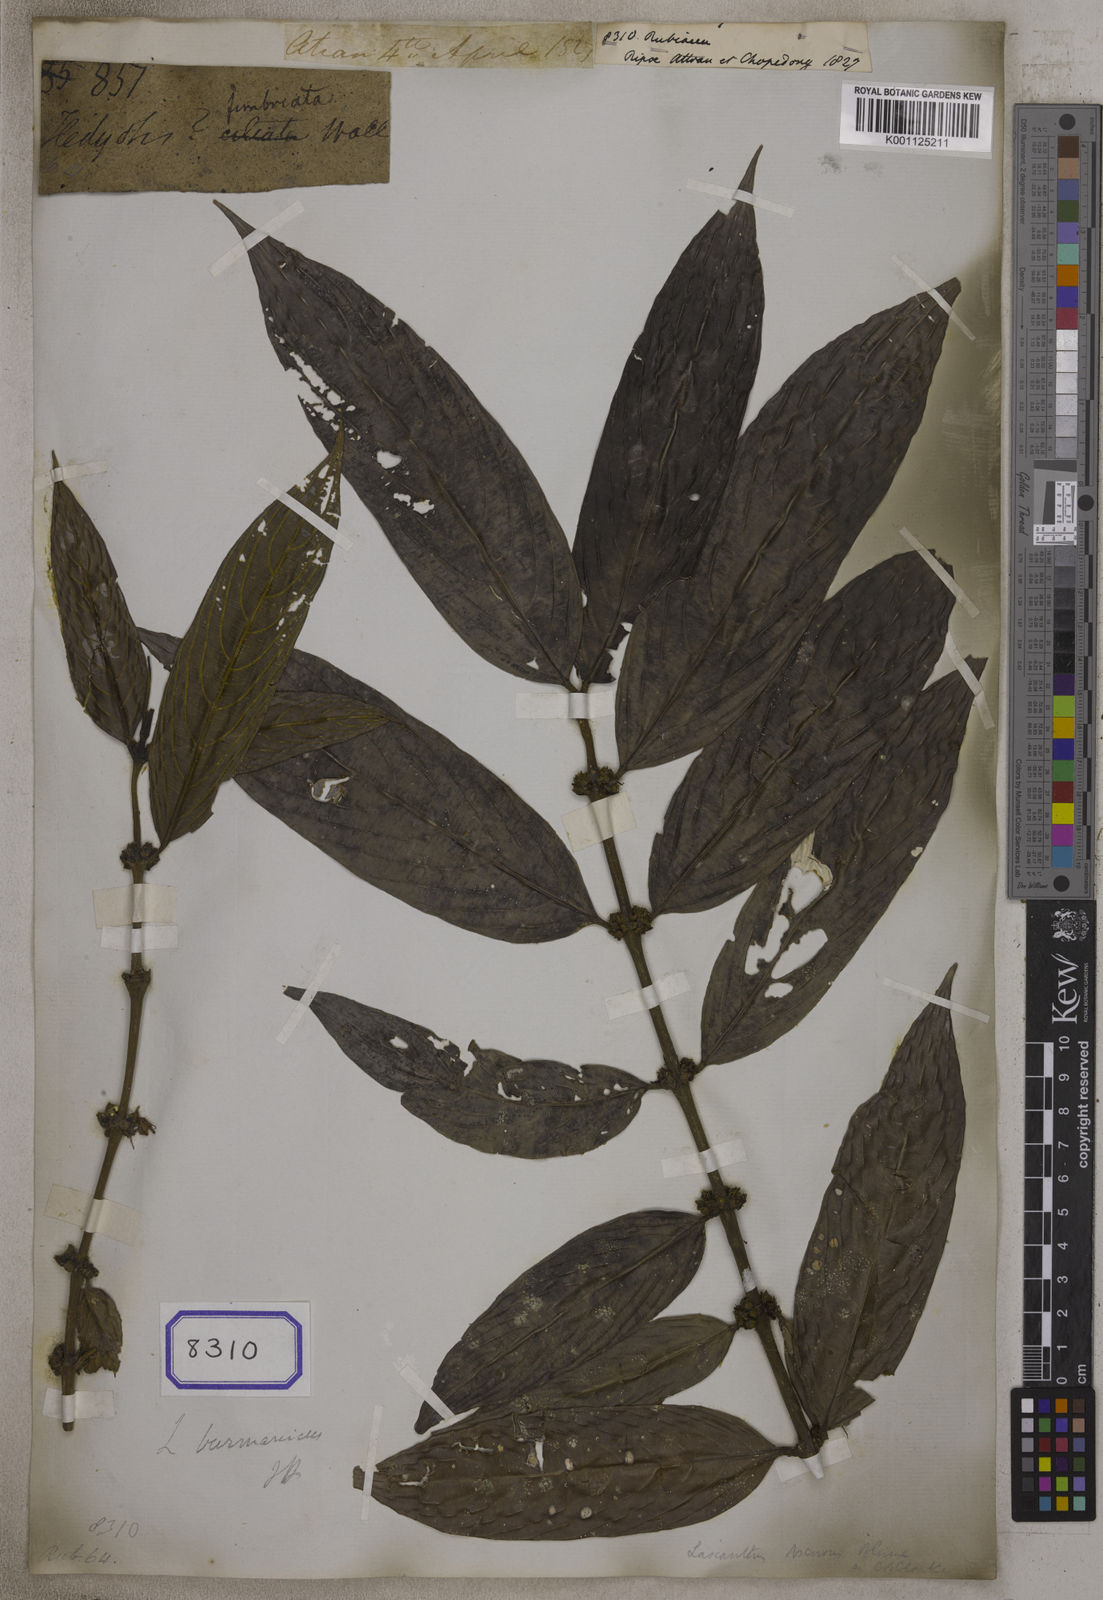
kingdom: Plantae
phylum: Tracheophyta
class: Magnoliopsida
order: Gentianales
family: Rubiaceae
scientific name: Rubiaceae
